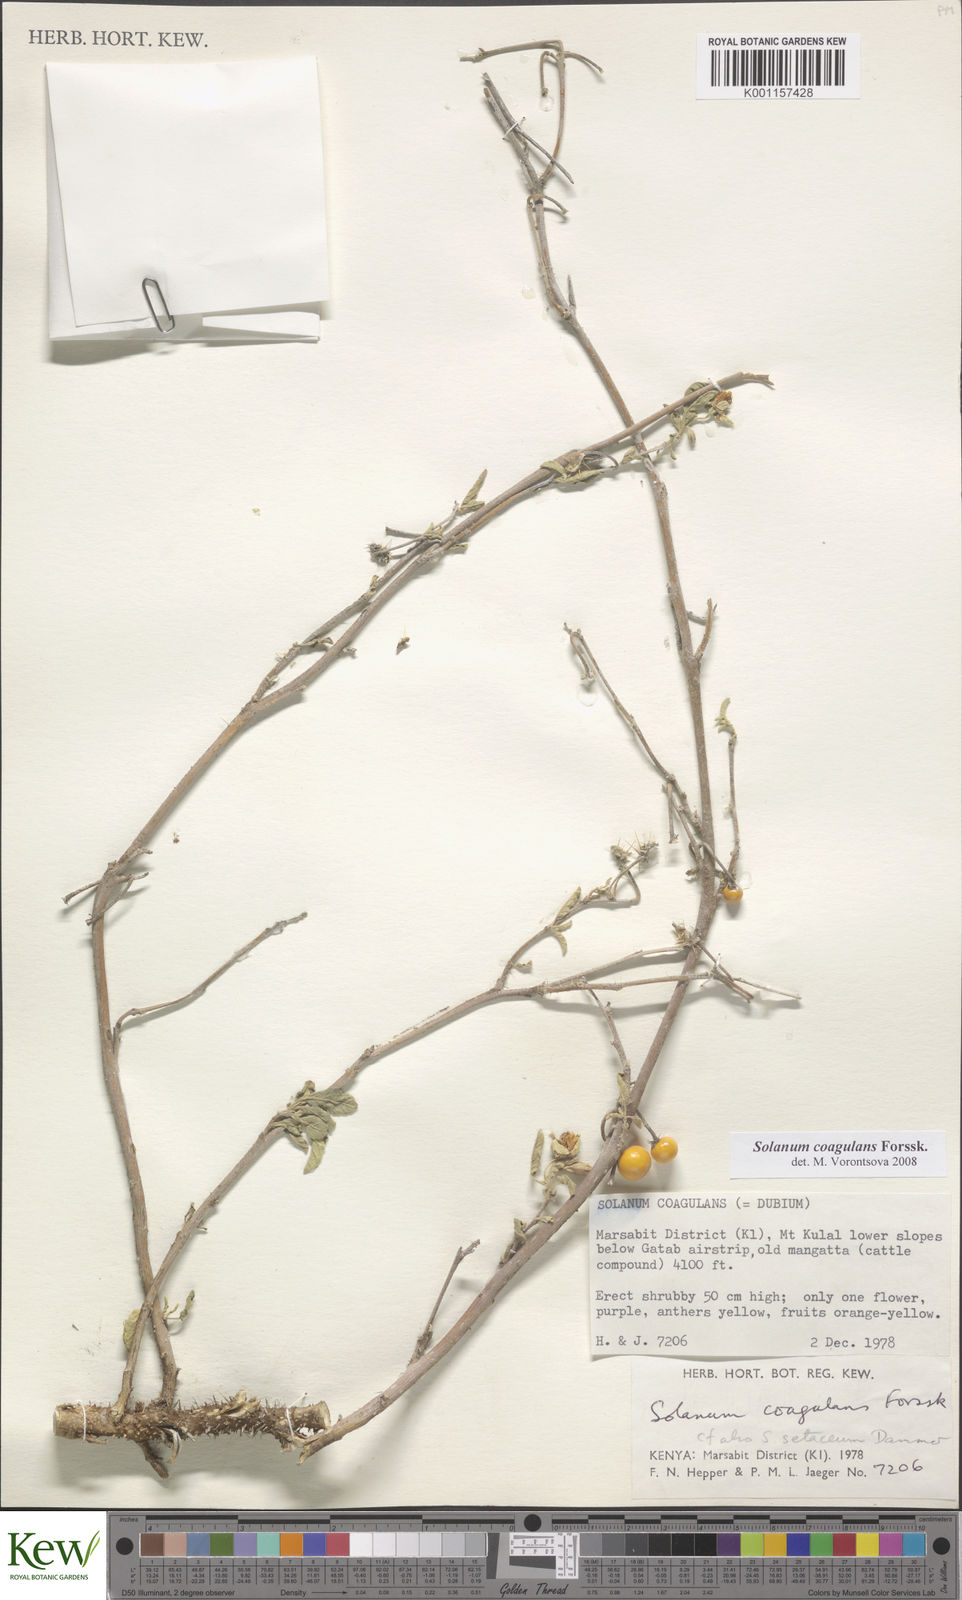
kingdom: Plantae
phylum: Tracheophyta
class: Magnoliopsida
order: Solanales
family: Solanaceae
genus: Solanum
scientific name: Solanum coagulans
